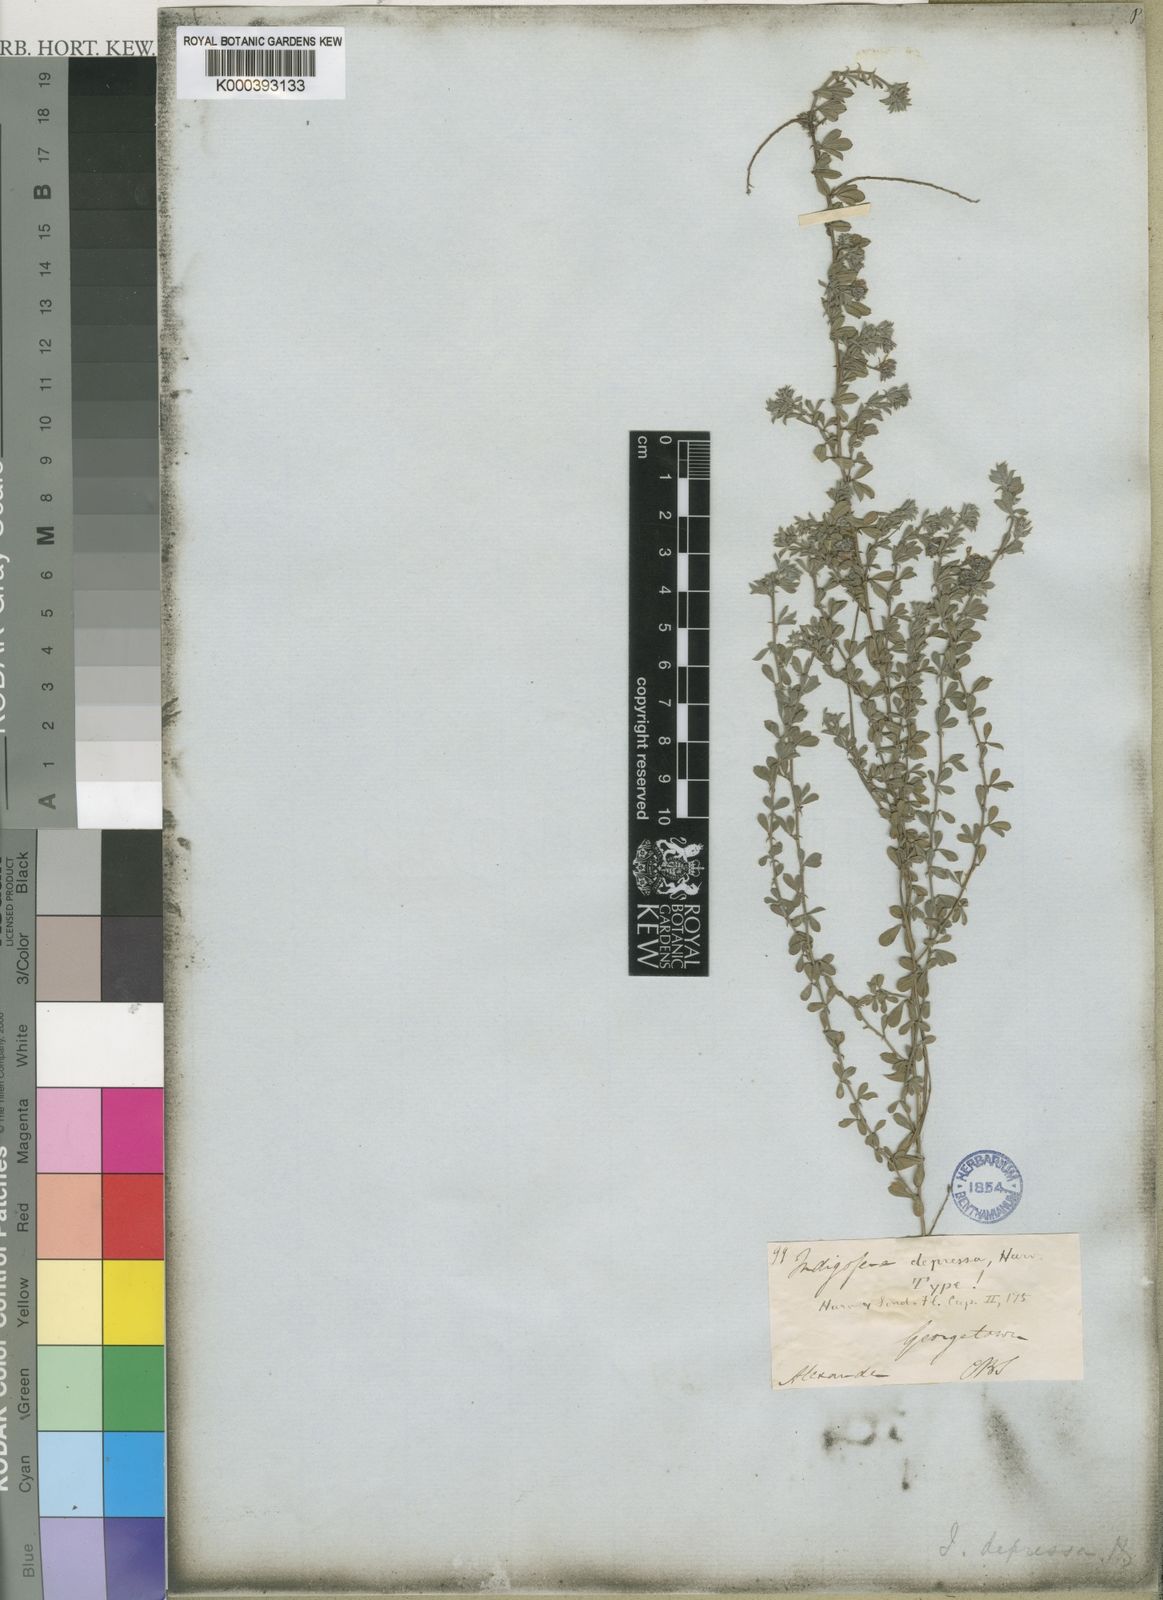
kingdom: Plantae
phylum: Tracheophyta
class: Magnoliopsida
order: Fabales
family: Fabaceae
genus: Indigofera
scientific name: Indigofera priorii
